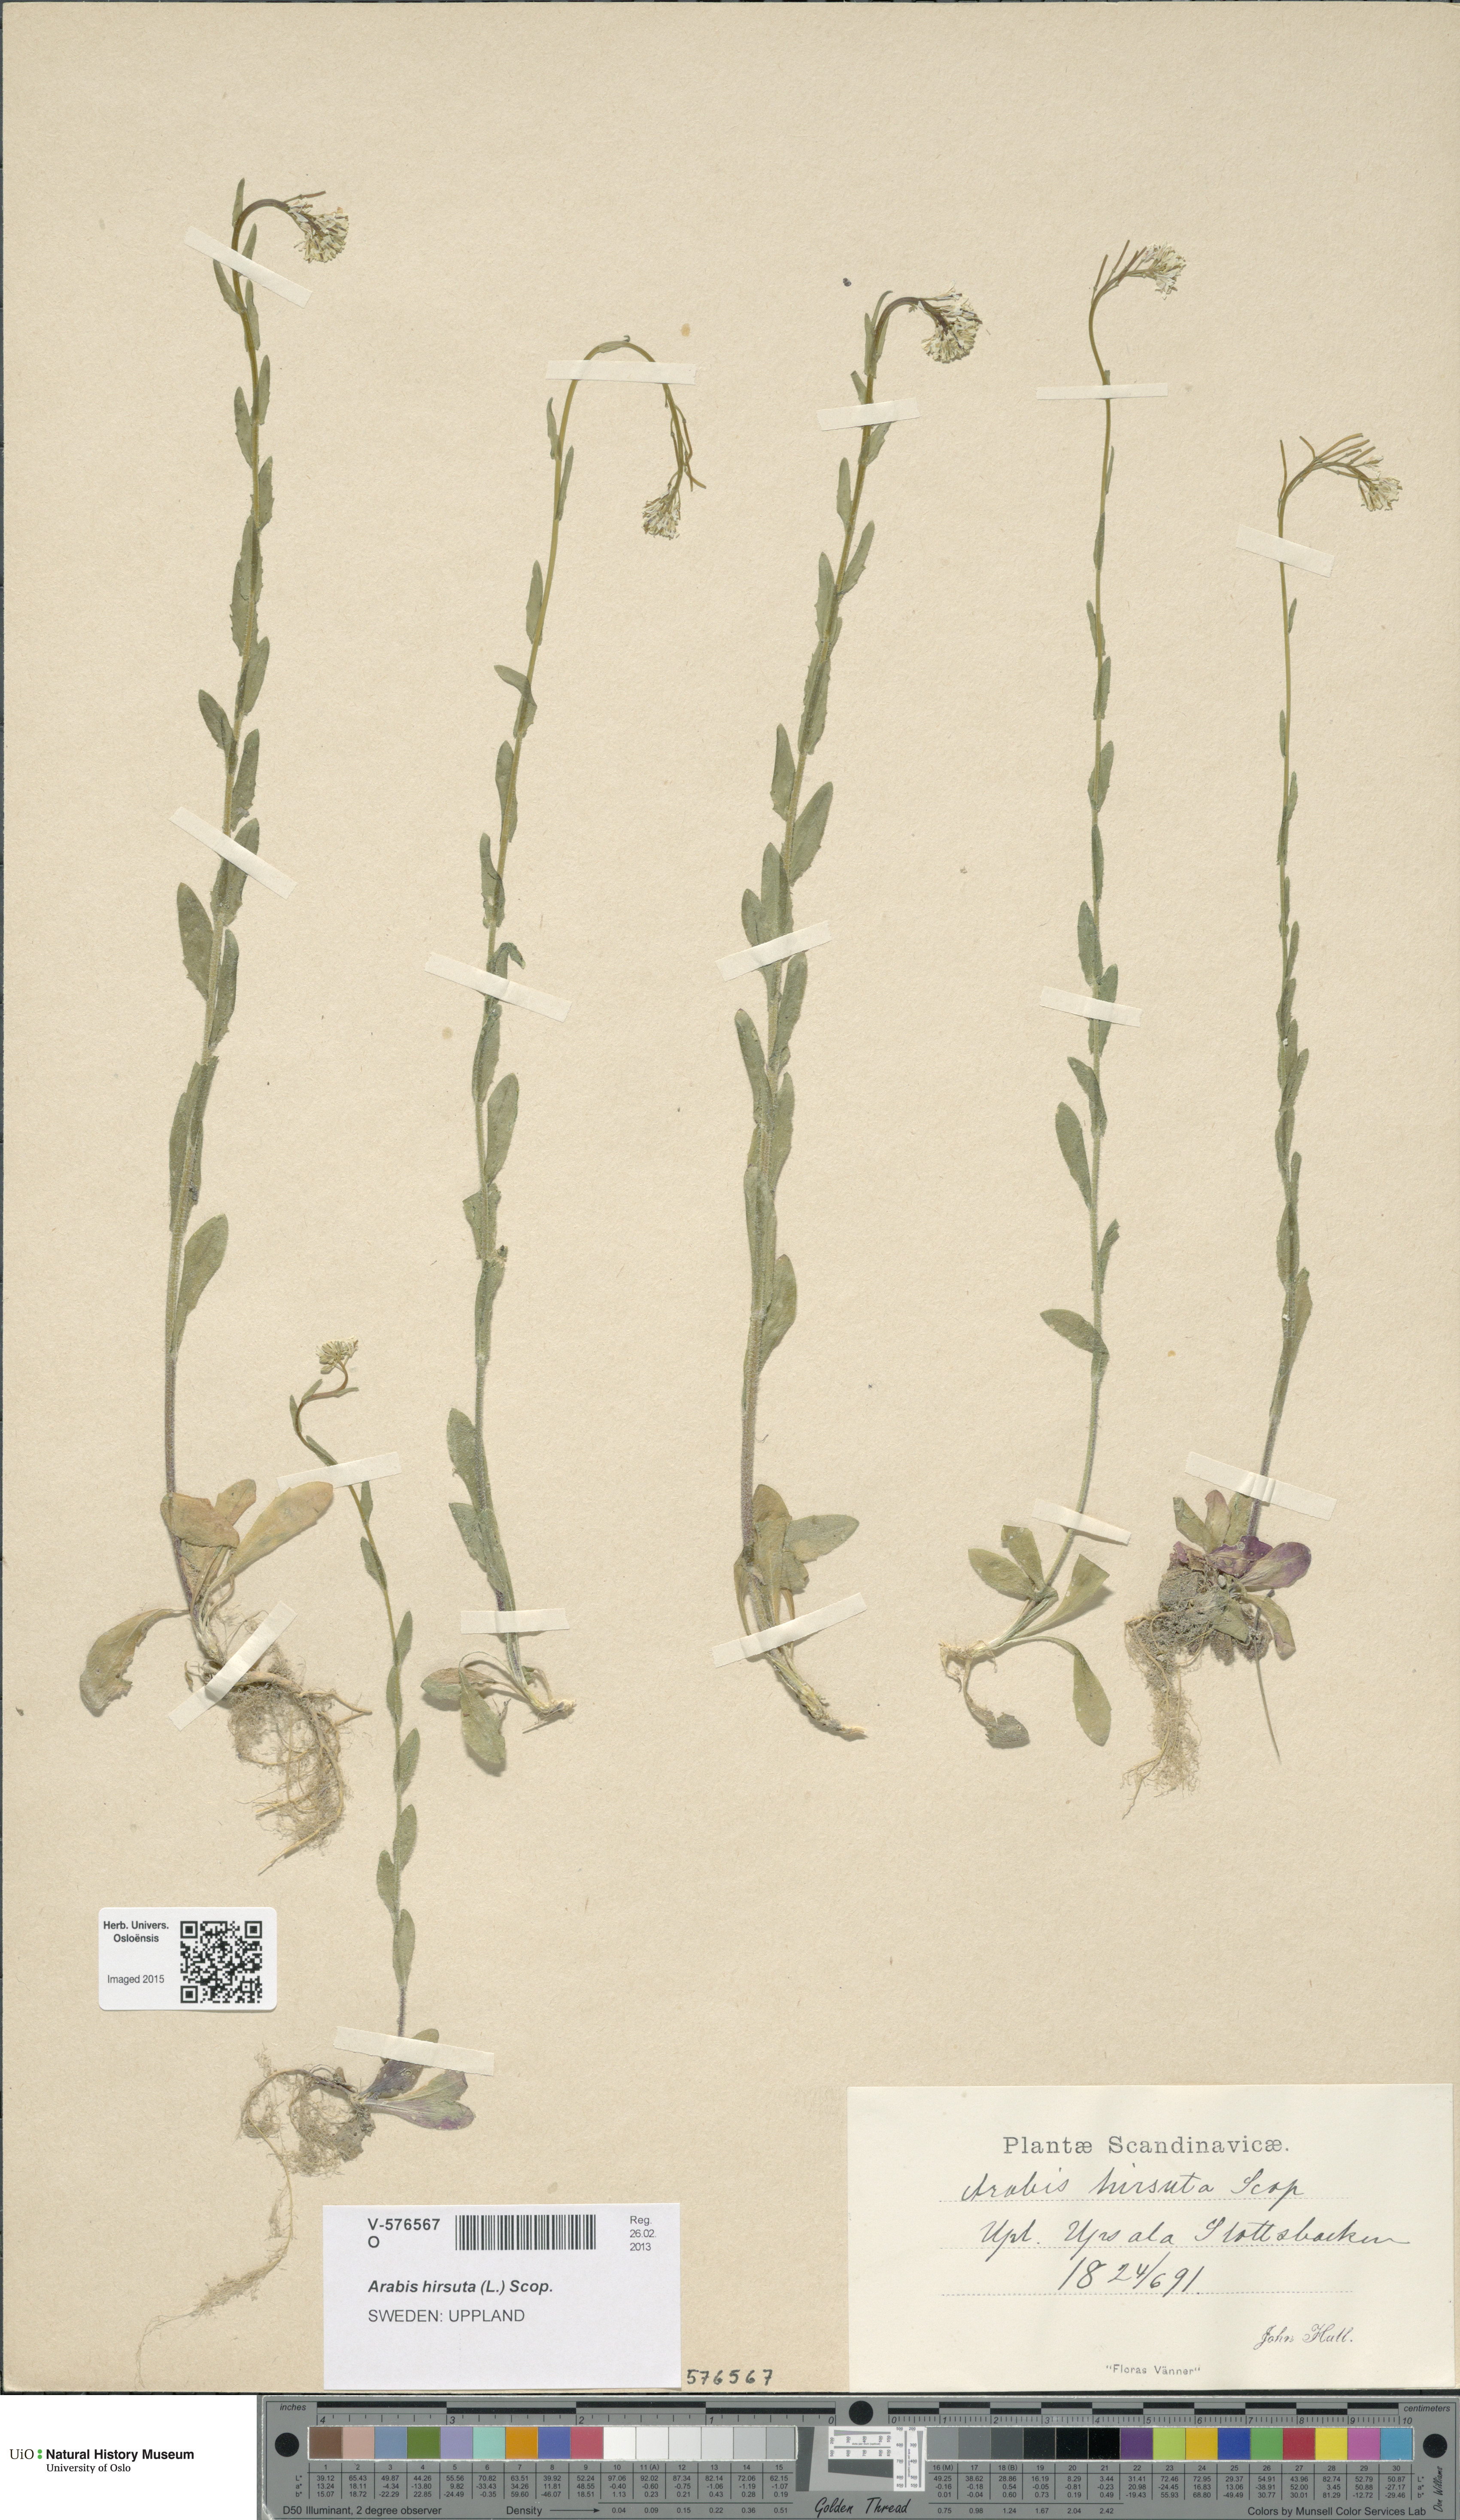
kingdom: Plantae
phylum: Tracheophyta
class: Magnoliopsida
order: Brassicales
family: Brassicaceae
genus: Arabis
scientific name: Arabis hirsuta
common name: Hairy rock-cress
